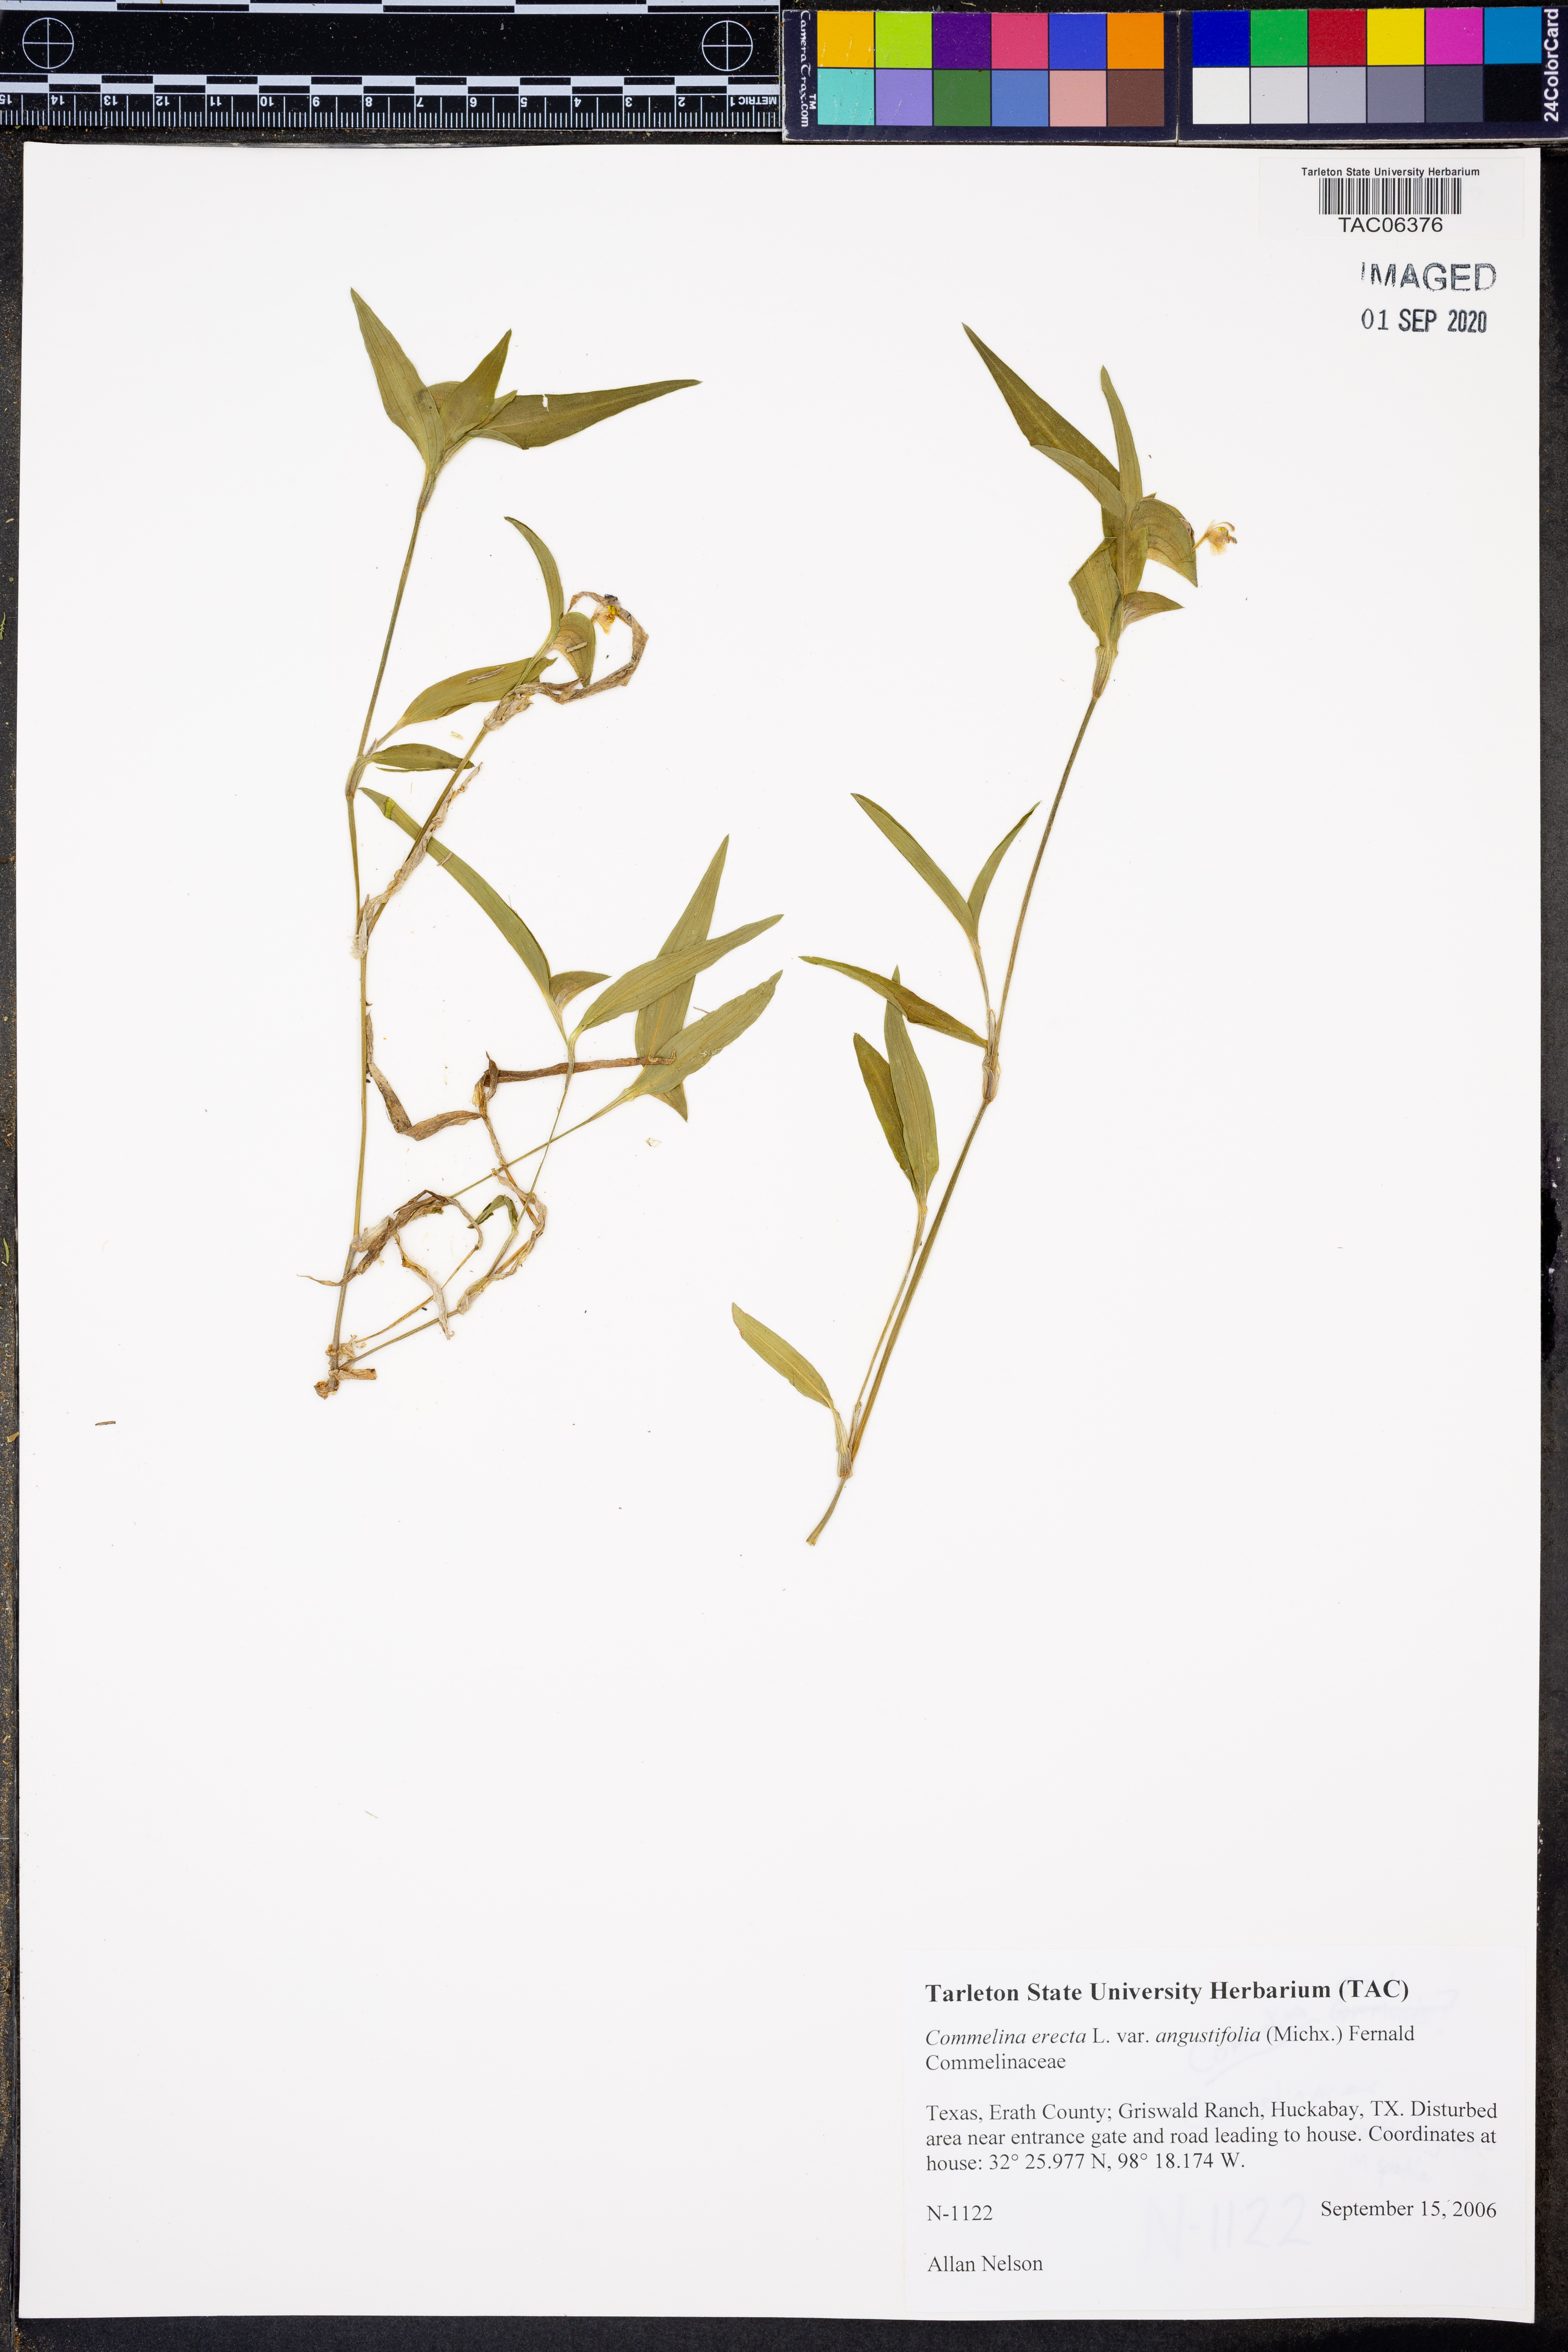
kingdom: Plantae
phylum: Tracheophyta
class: Liliopsida
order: Commelinales
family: Commelinaceae
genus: Commelina
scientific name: Commelina erecta
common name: Blousel blommetjie
